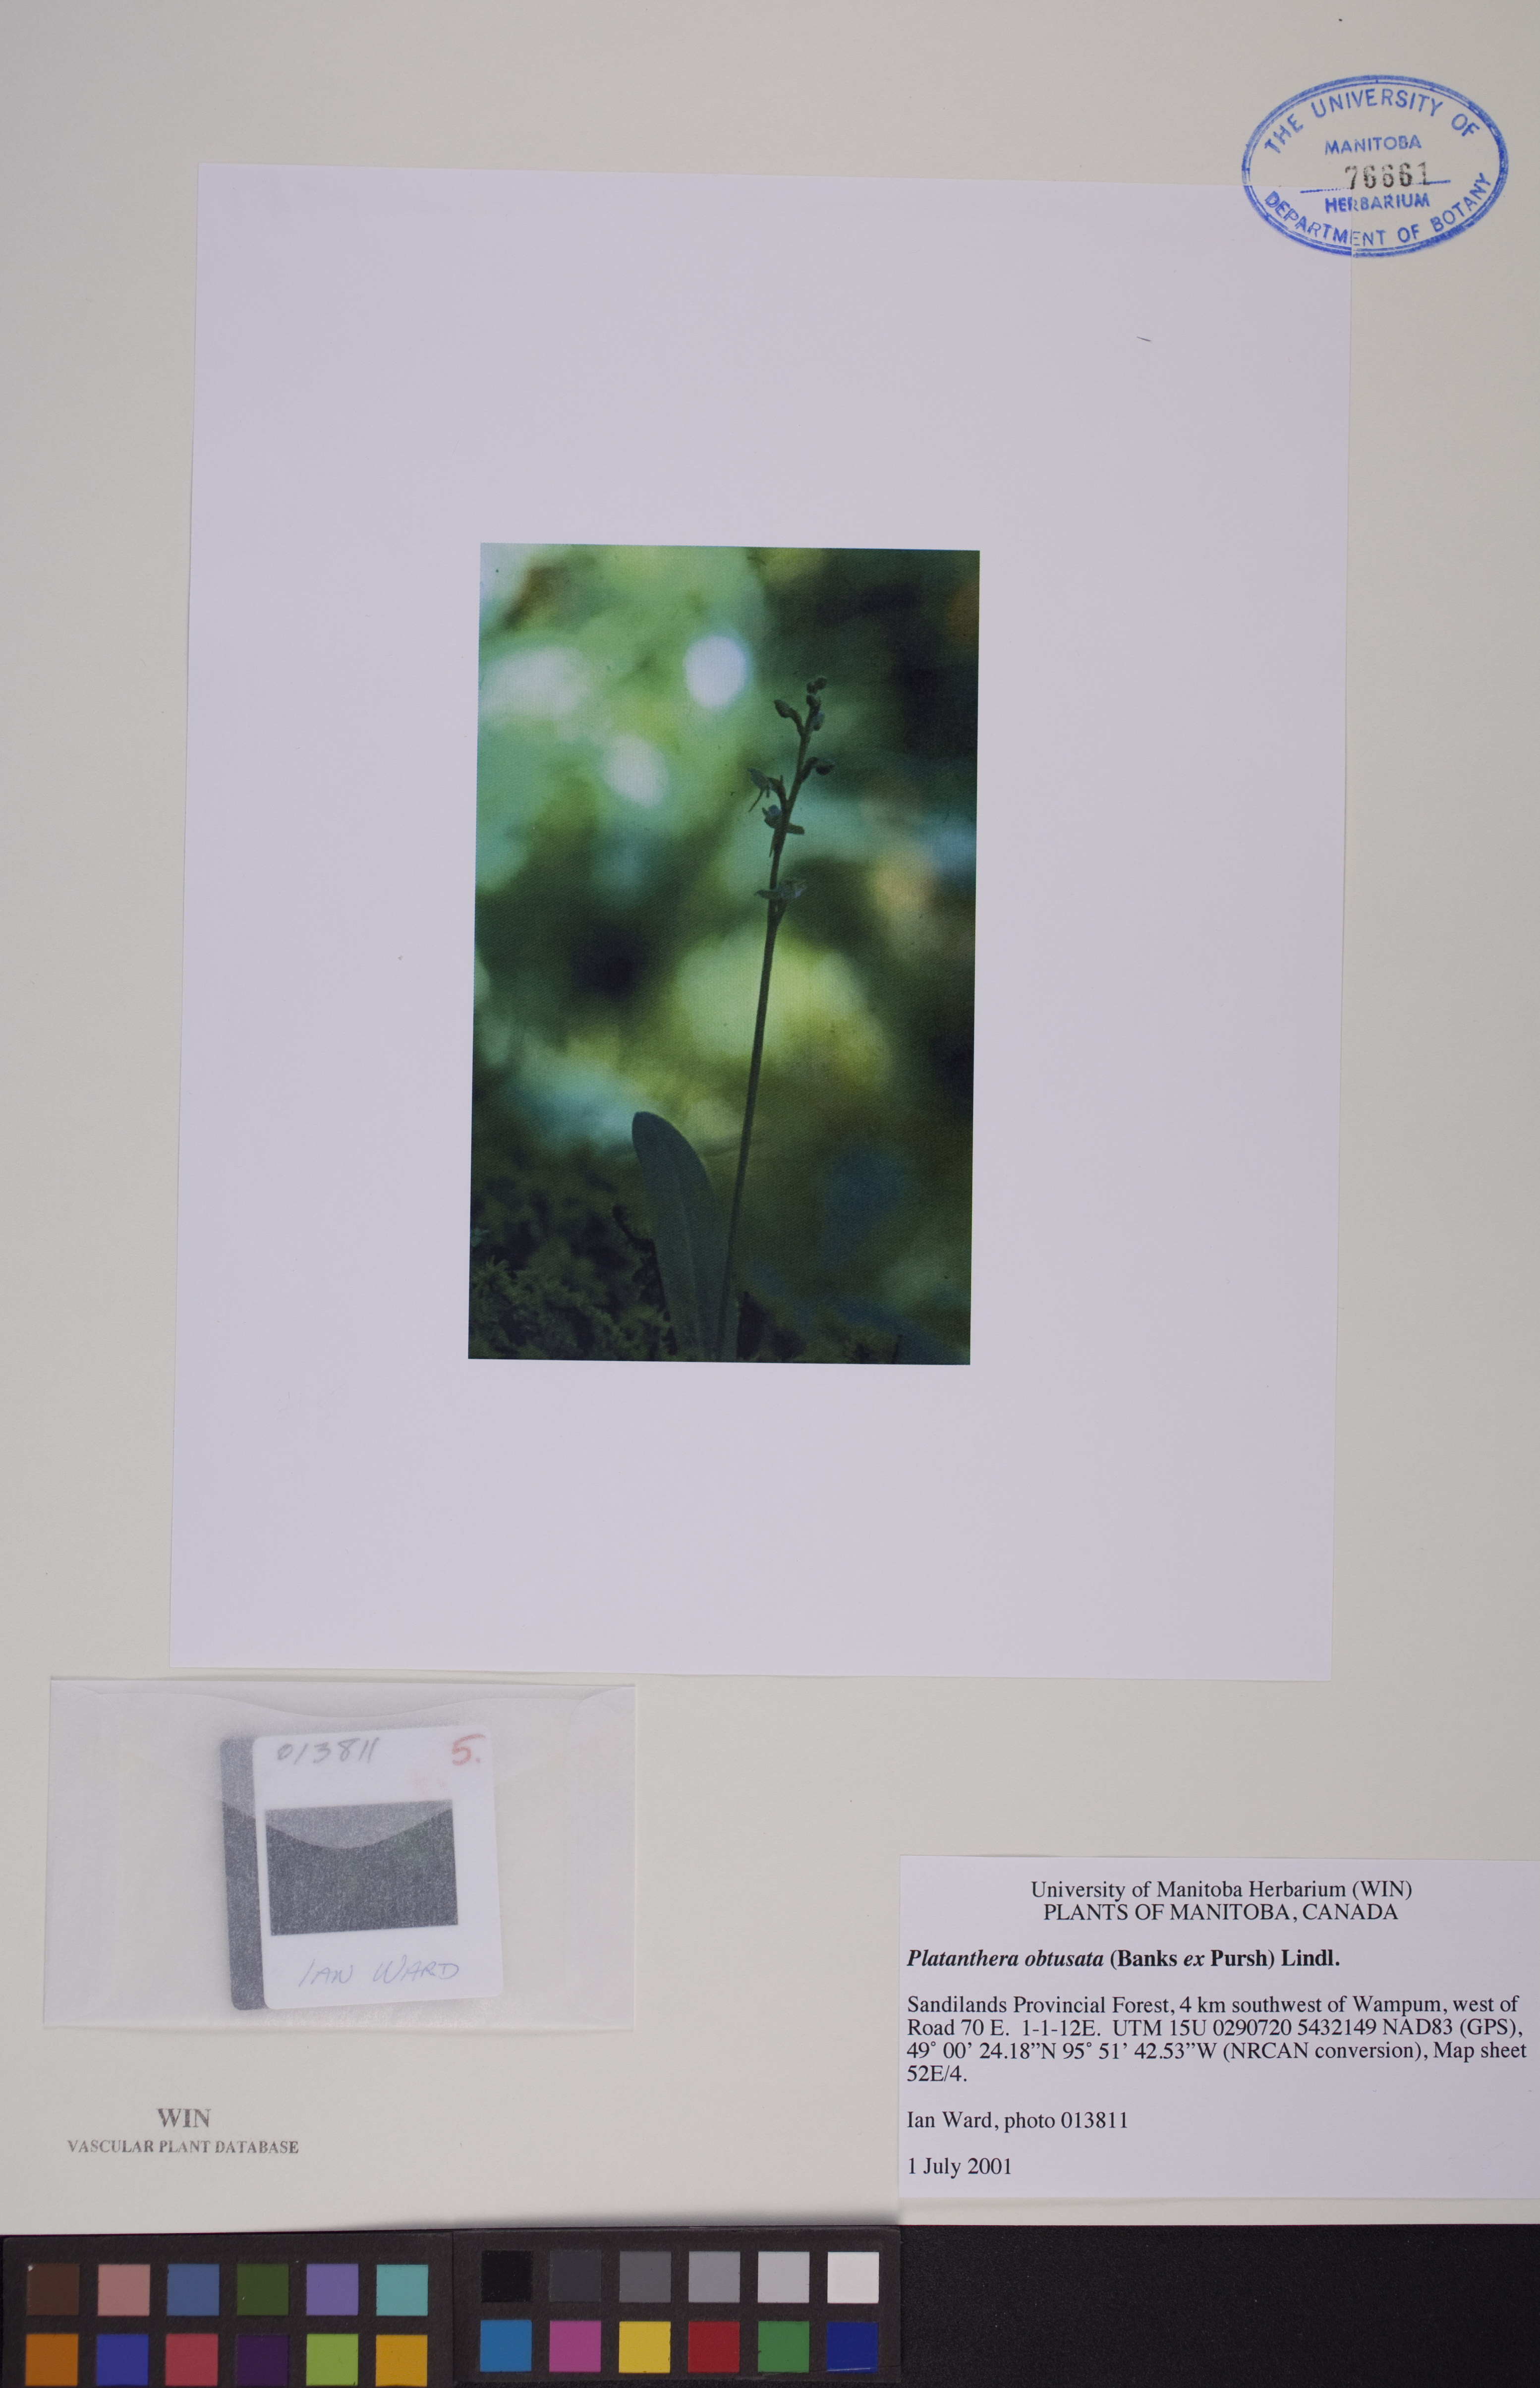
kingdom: Plantae
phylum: Tracheophyta
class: Liliopsida
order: Asparagales
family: Orchidaceae
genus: Platanthera
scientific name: Platanthera obtusata
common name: Blunt bog orchid
